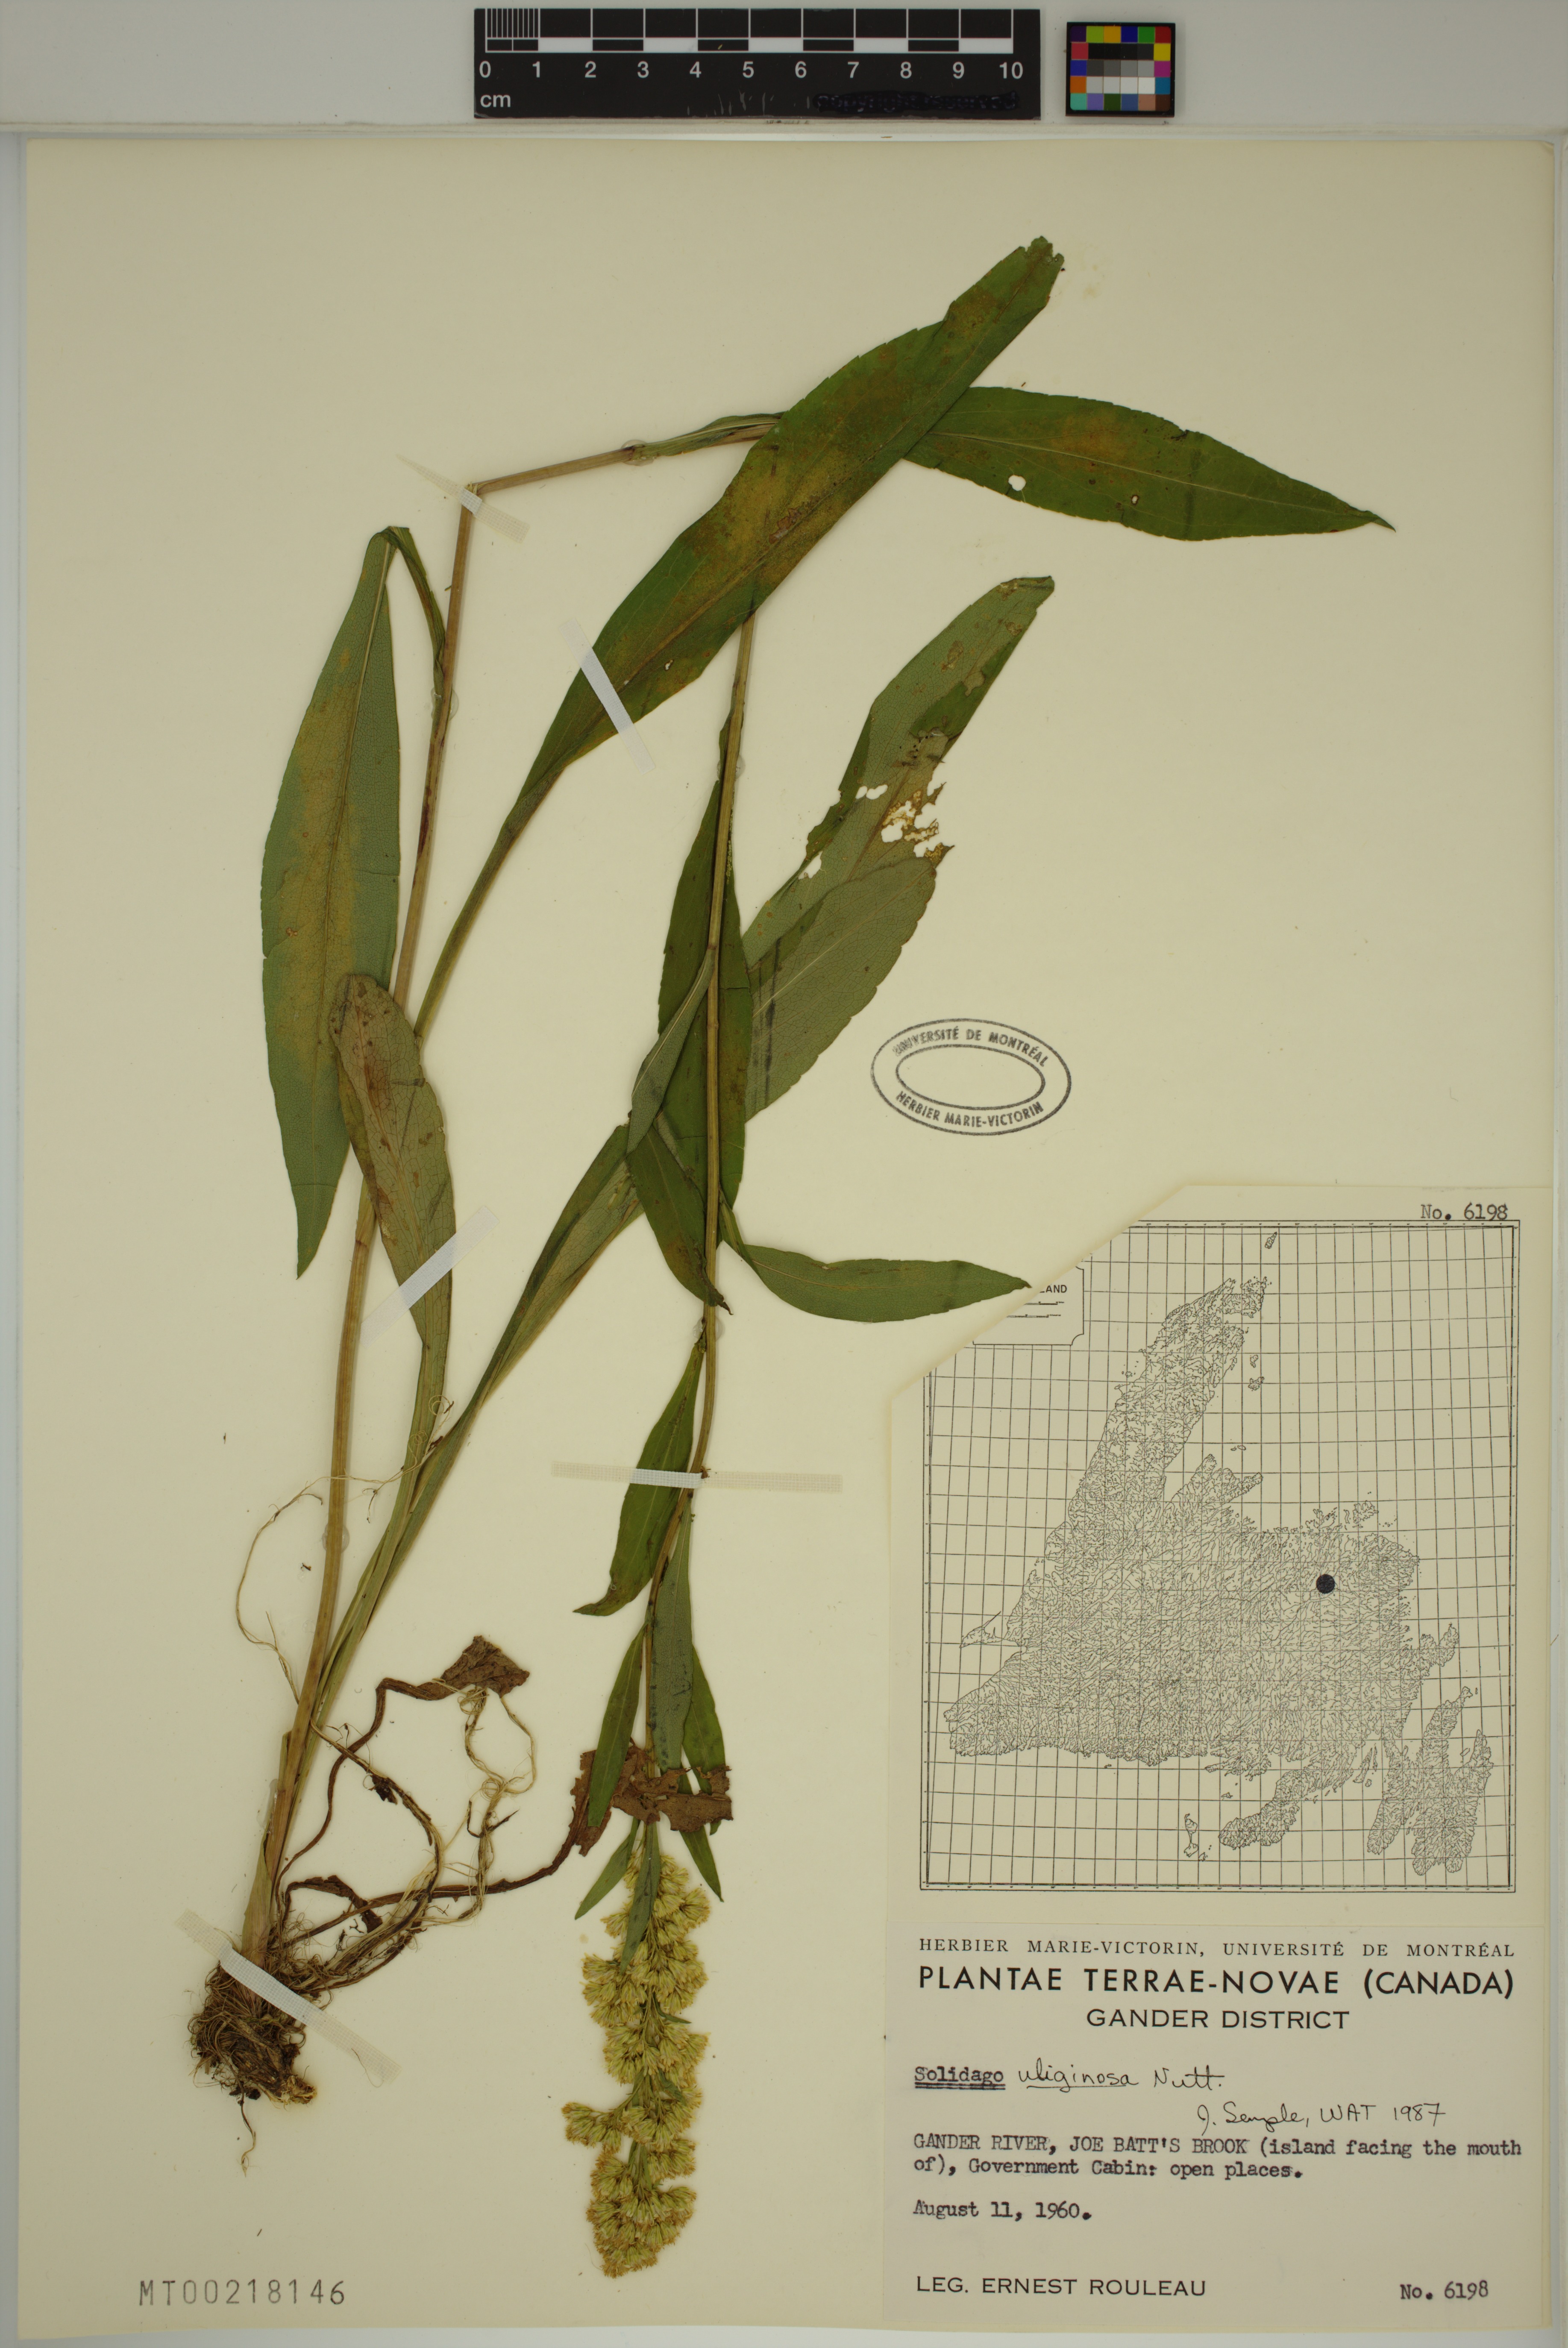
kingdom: Plantae
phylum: Tracheophyta
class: Magnoliopsida
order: Asterales
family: Asteraceae
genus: Solidago
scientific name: Solidago uliginosa
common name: Bog goldenrod
